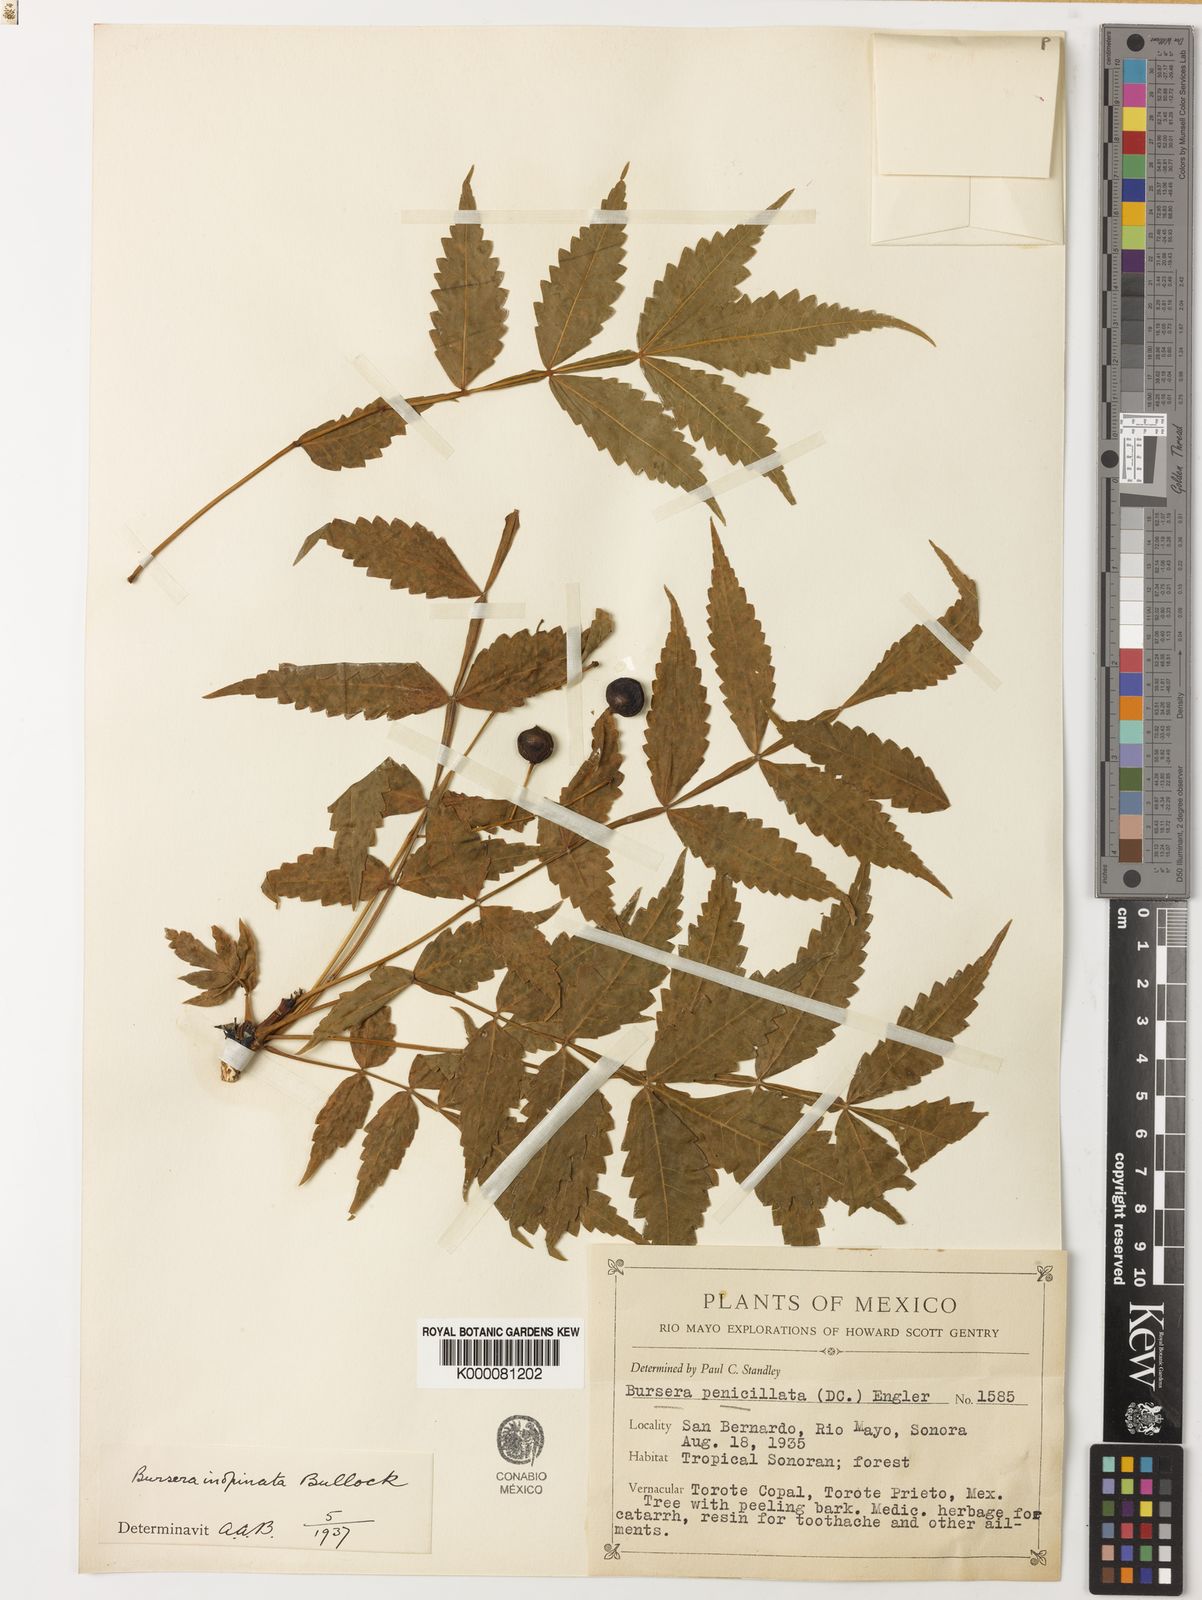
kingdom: Plantae
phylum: Tracheophyta
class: Magnoliopsida
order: Sapindales
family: Burseraceae
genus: Bursera
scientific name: Bursera penicillata
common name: Indian-lavender
